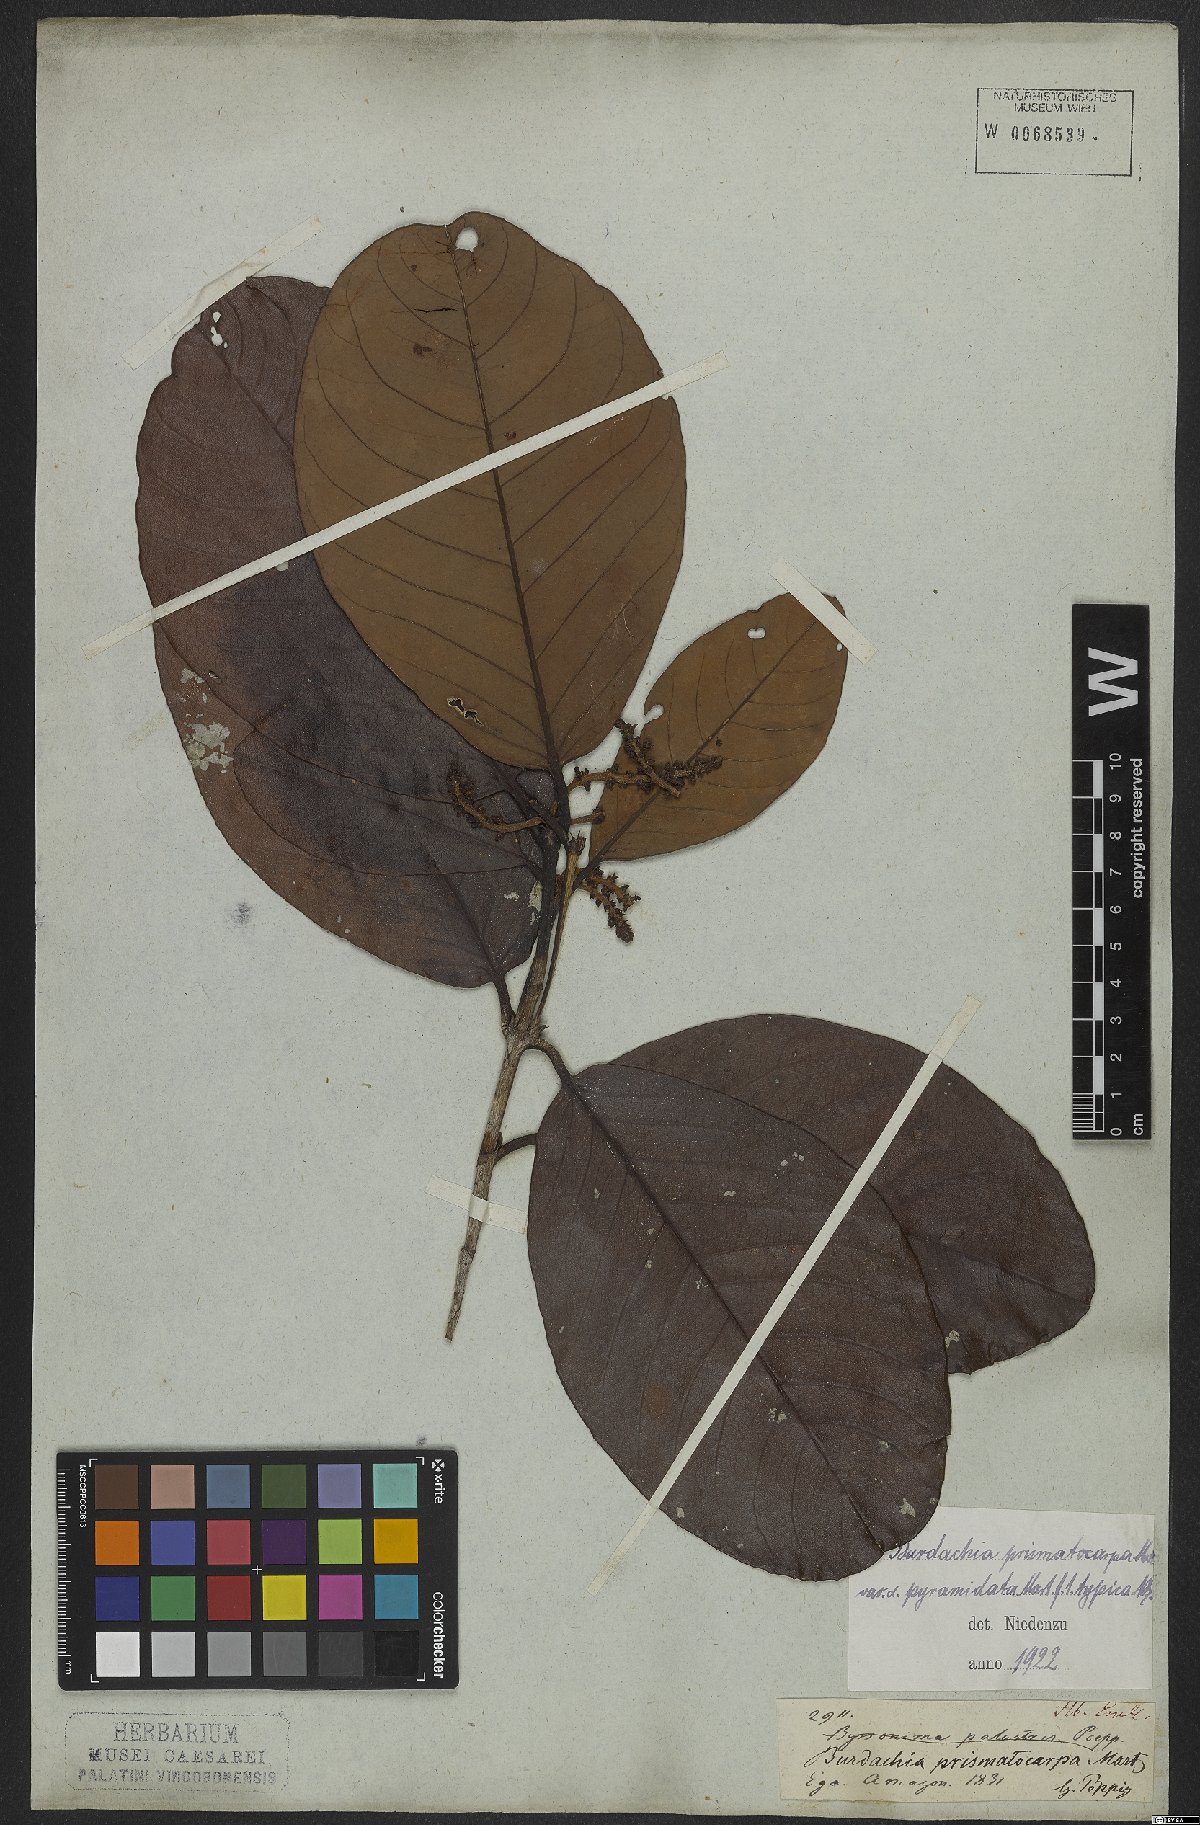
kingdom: Plantae
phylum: Tracheophyta
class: Magnoliopsida
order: Malpighiales
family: Malpighiaceae
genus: Burdachia
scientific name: Burdachia prismatocarpa
